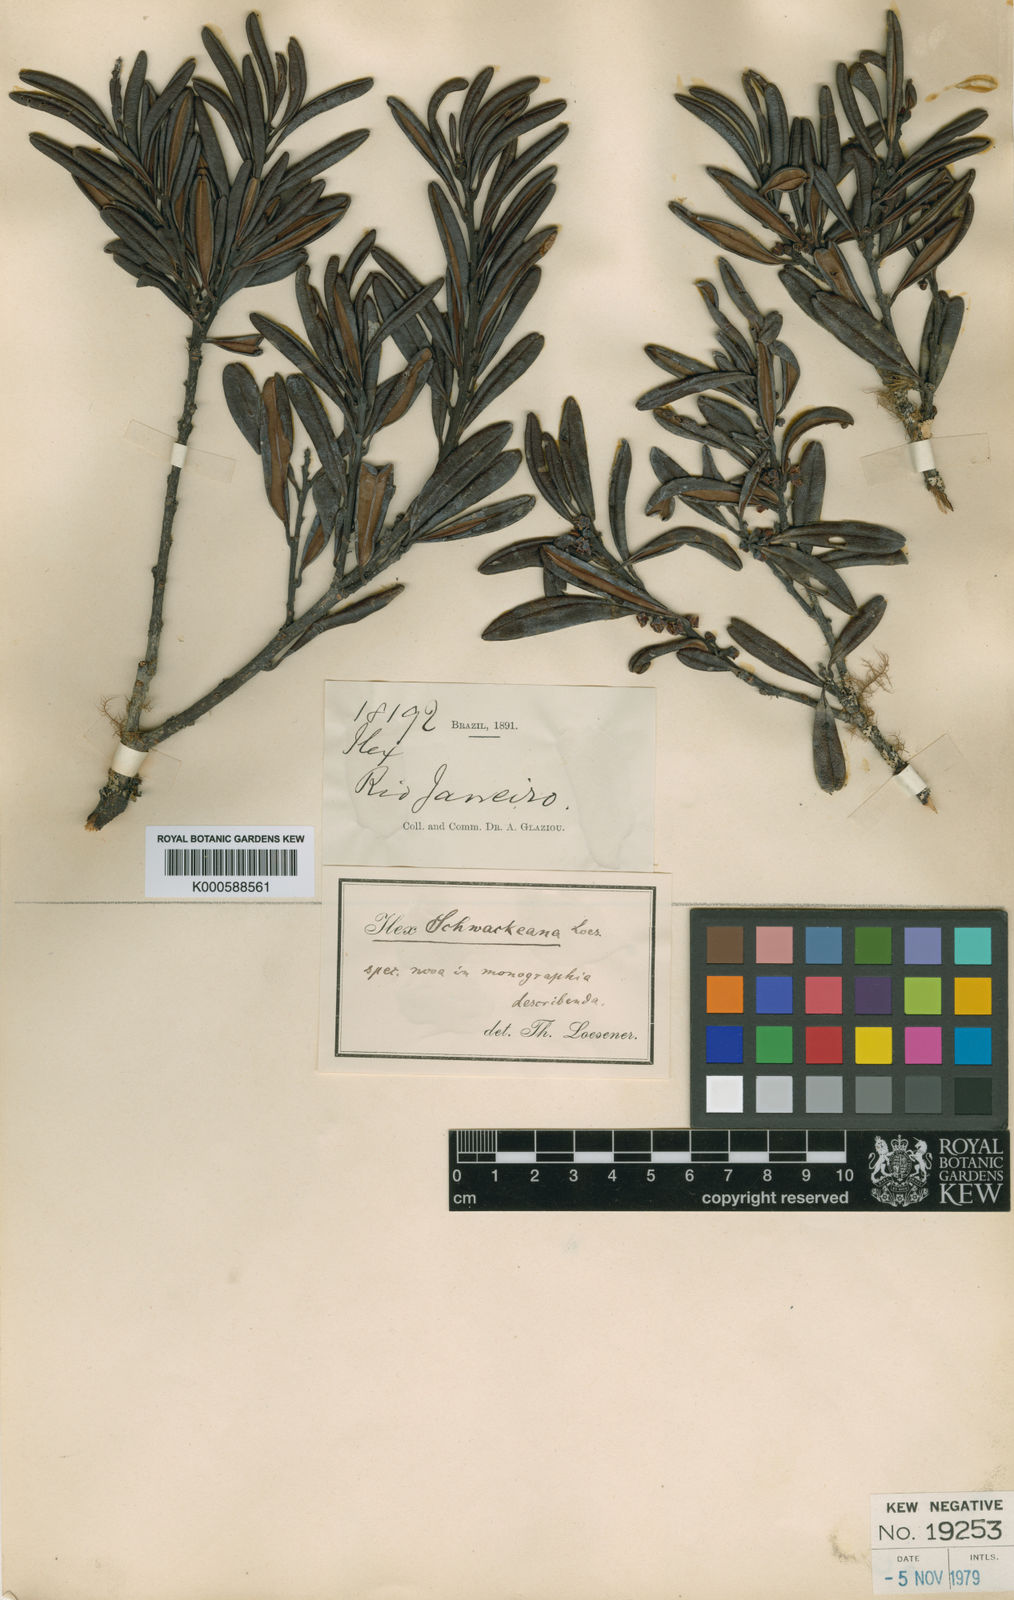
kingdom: Plantae
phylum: Tracheophyta
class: Magnoliopsida
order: Aquifoliales
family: Aquifoliaceae
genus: Ilex
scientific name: Ilex schwackeana
